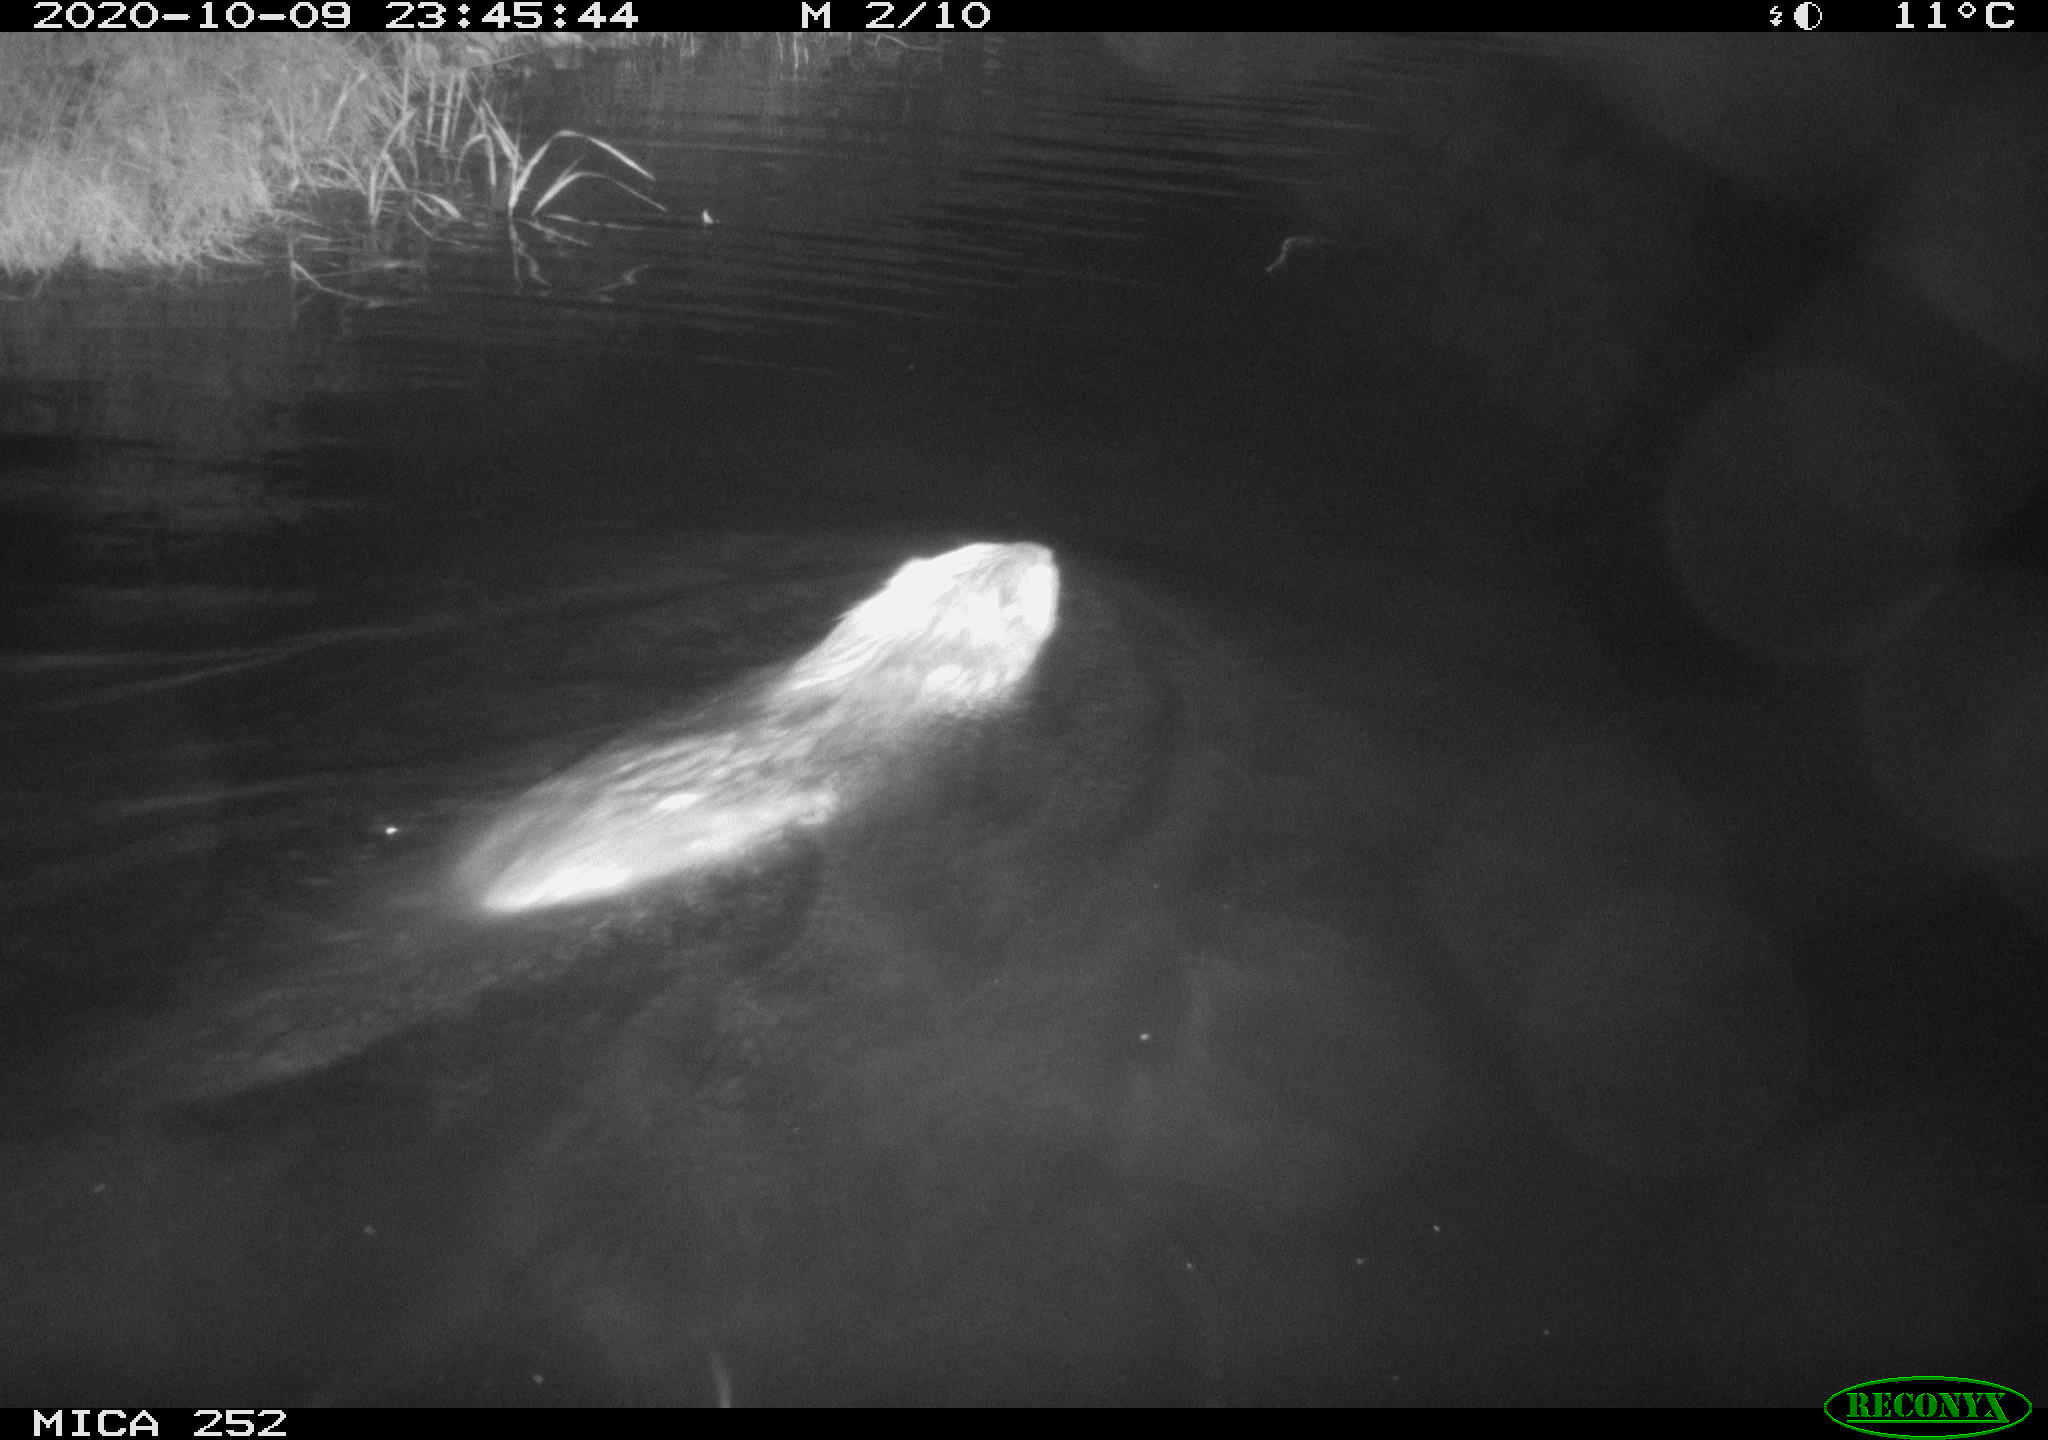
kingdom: Animalia
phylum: Chordata
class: Mammalia
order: Rodentia
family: Castoridae
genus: Castor
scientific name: Castor fiber
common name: Eurasian beaver
